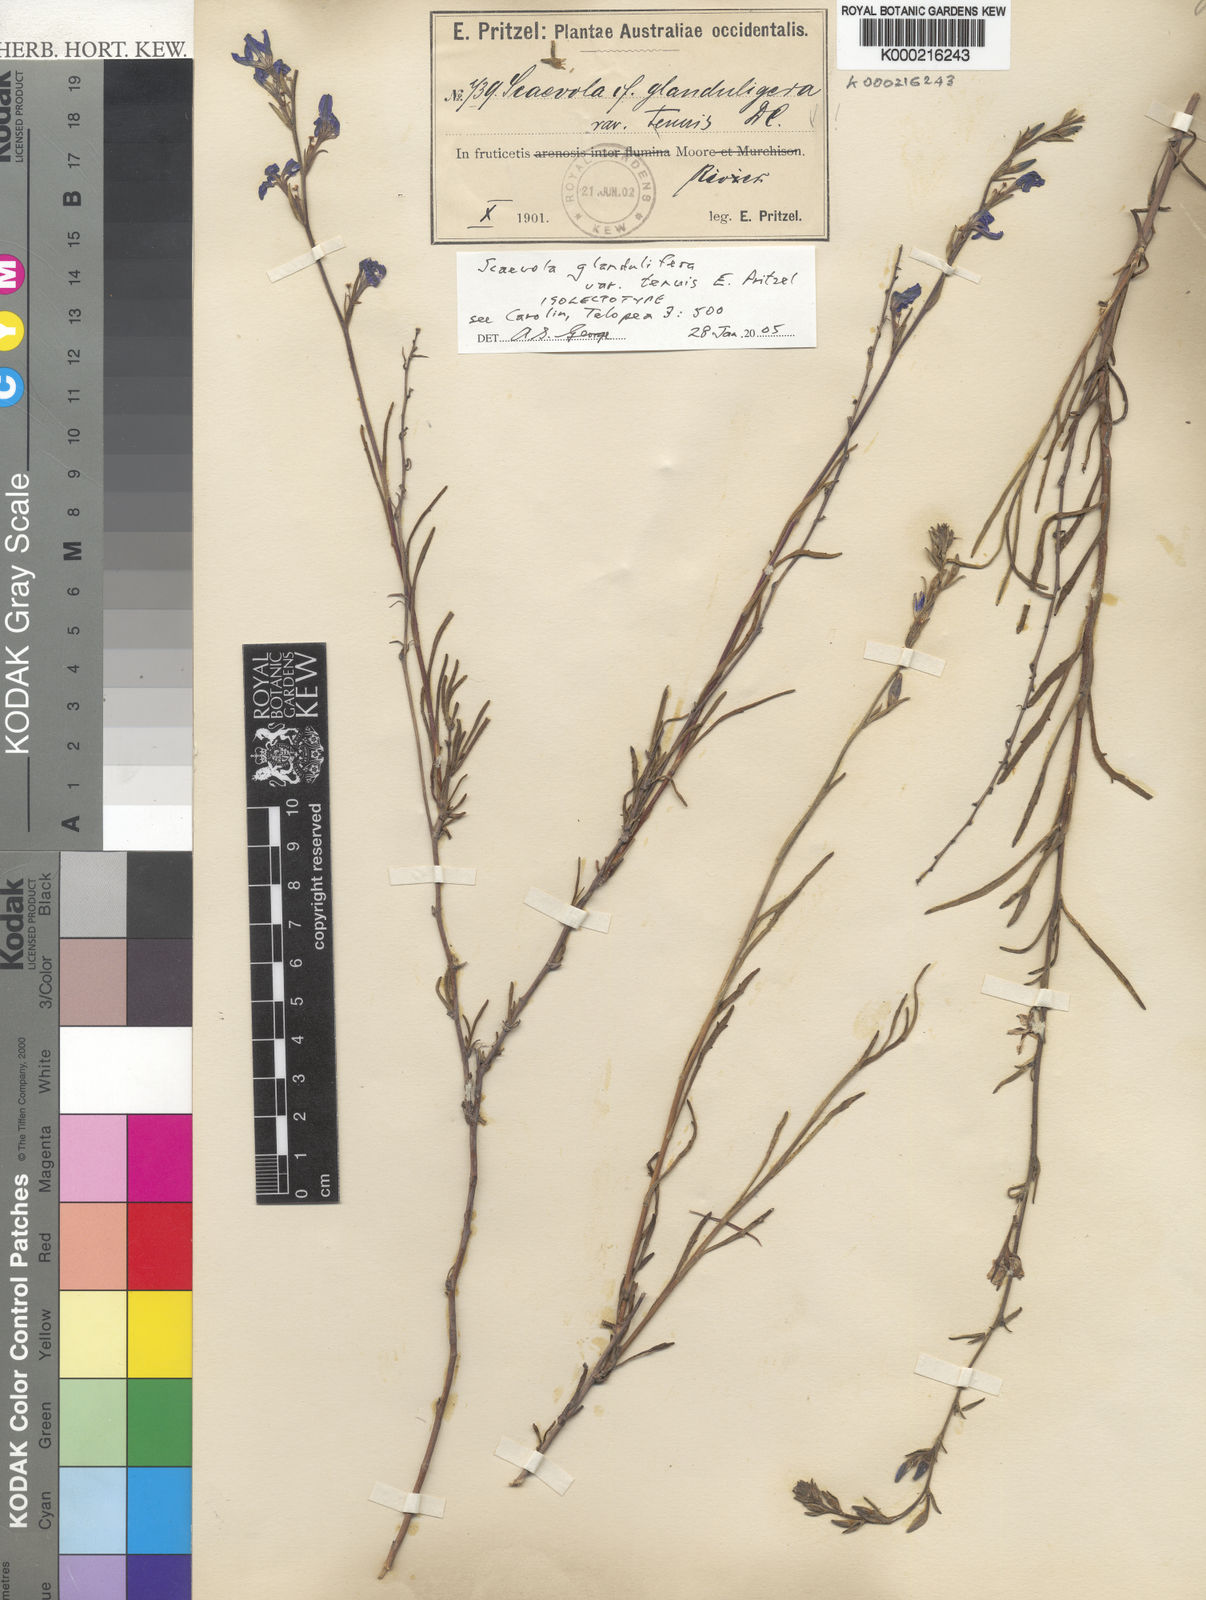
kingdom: Plantae
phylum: Tracheophyta
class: Magnoliopsida
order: Asterales
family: Goodeniaceae
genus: Scaevola
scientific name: Scaevola glandulifera
